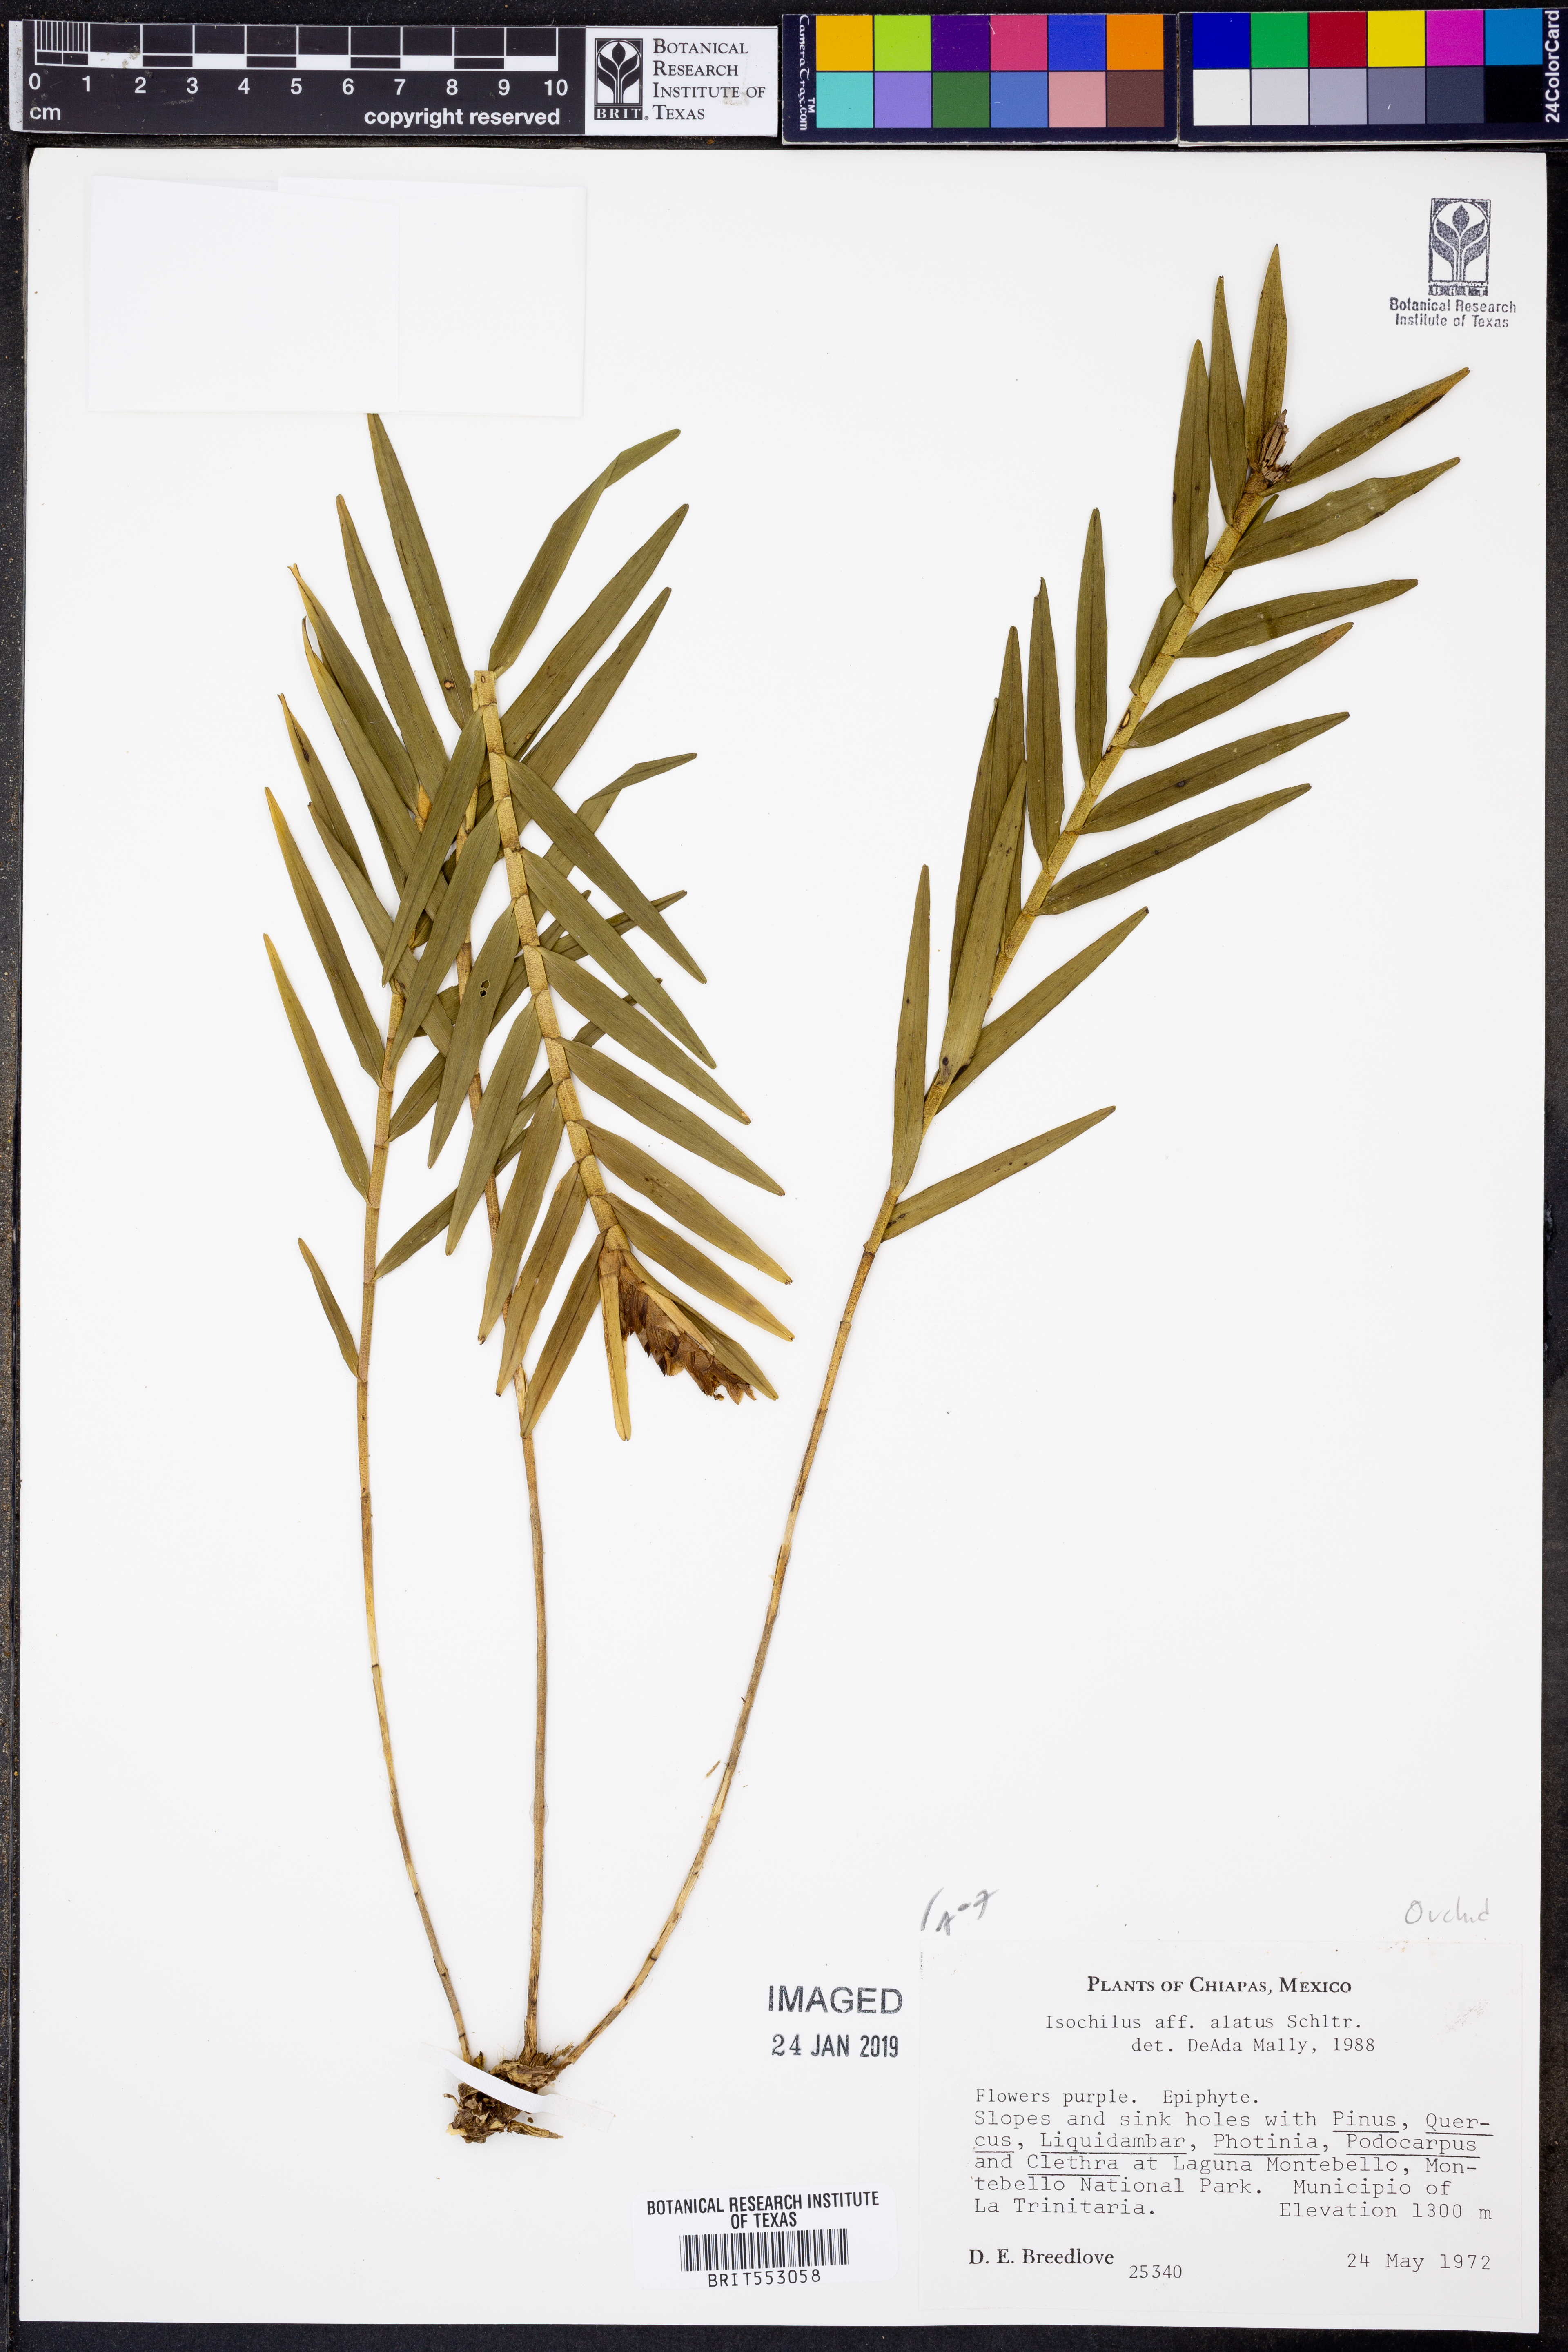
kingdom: Plantae
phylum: Tracheophyta
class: Liliopsida
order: Asparagales
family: Orchidaceae
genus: Isochilus
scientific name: Isochilus alatus
